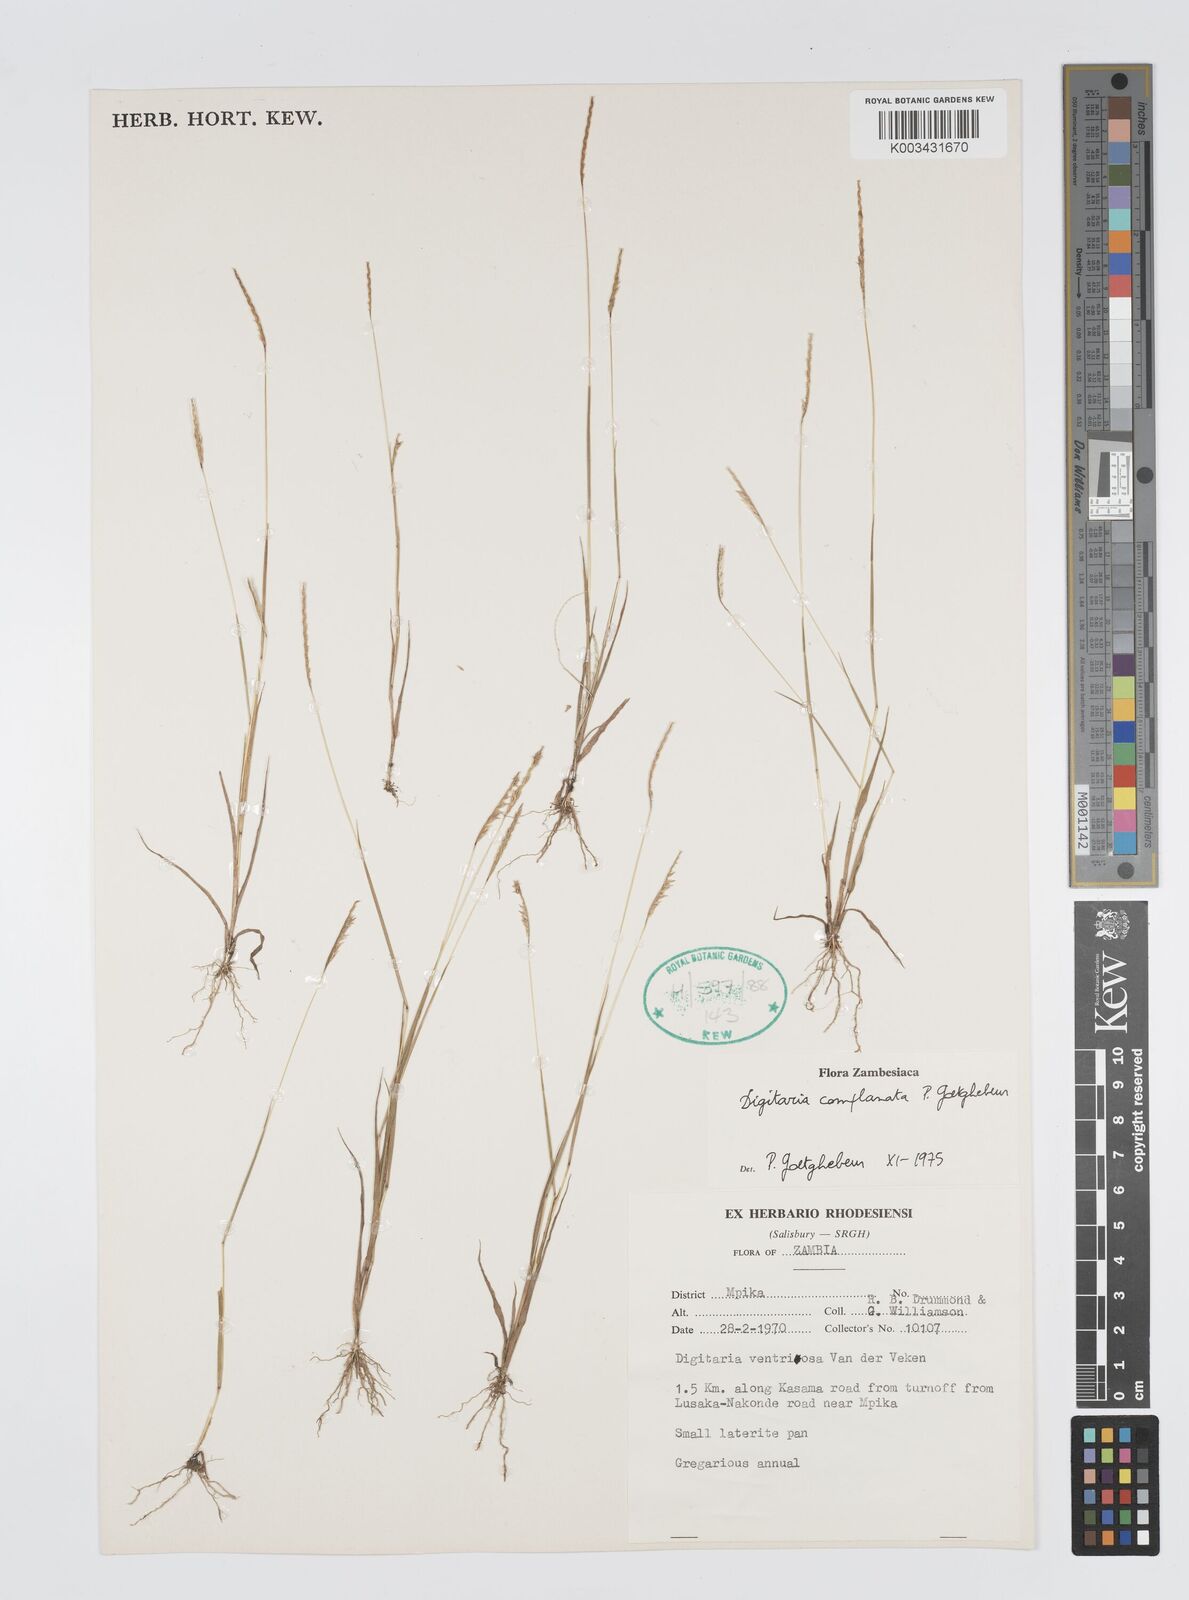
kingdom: Plantae
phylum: Tracheophyta
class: Liliopsida
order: Poales
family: Poaceae
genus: Digitaria
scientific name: Digitaria complanata
